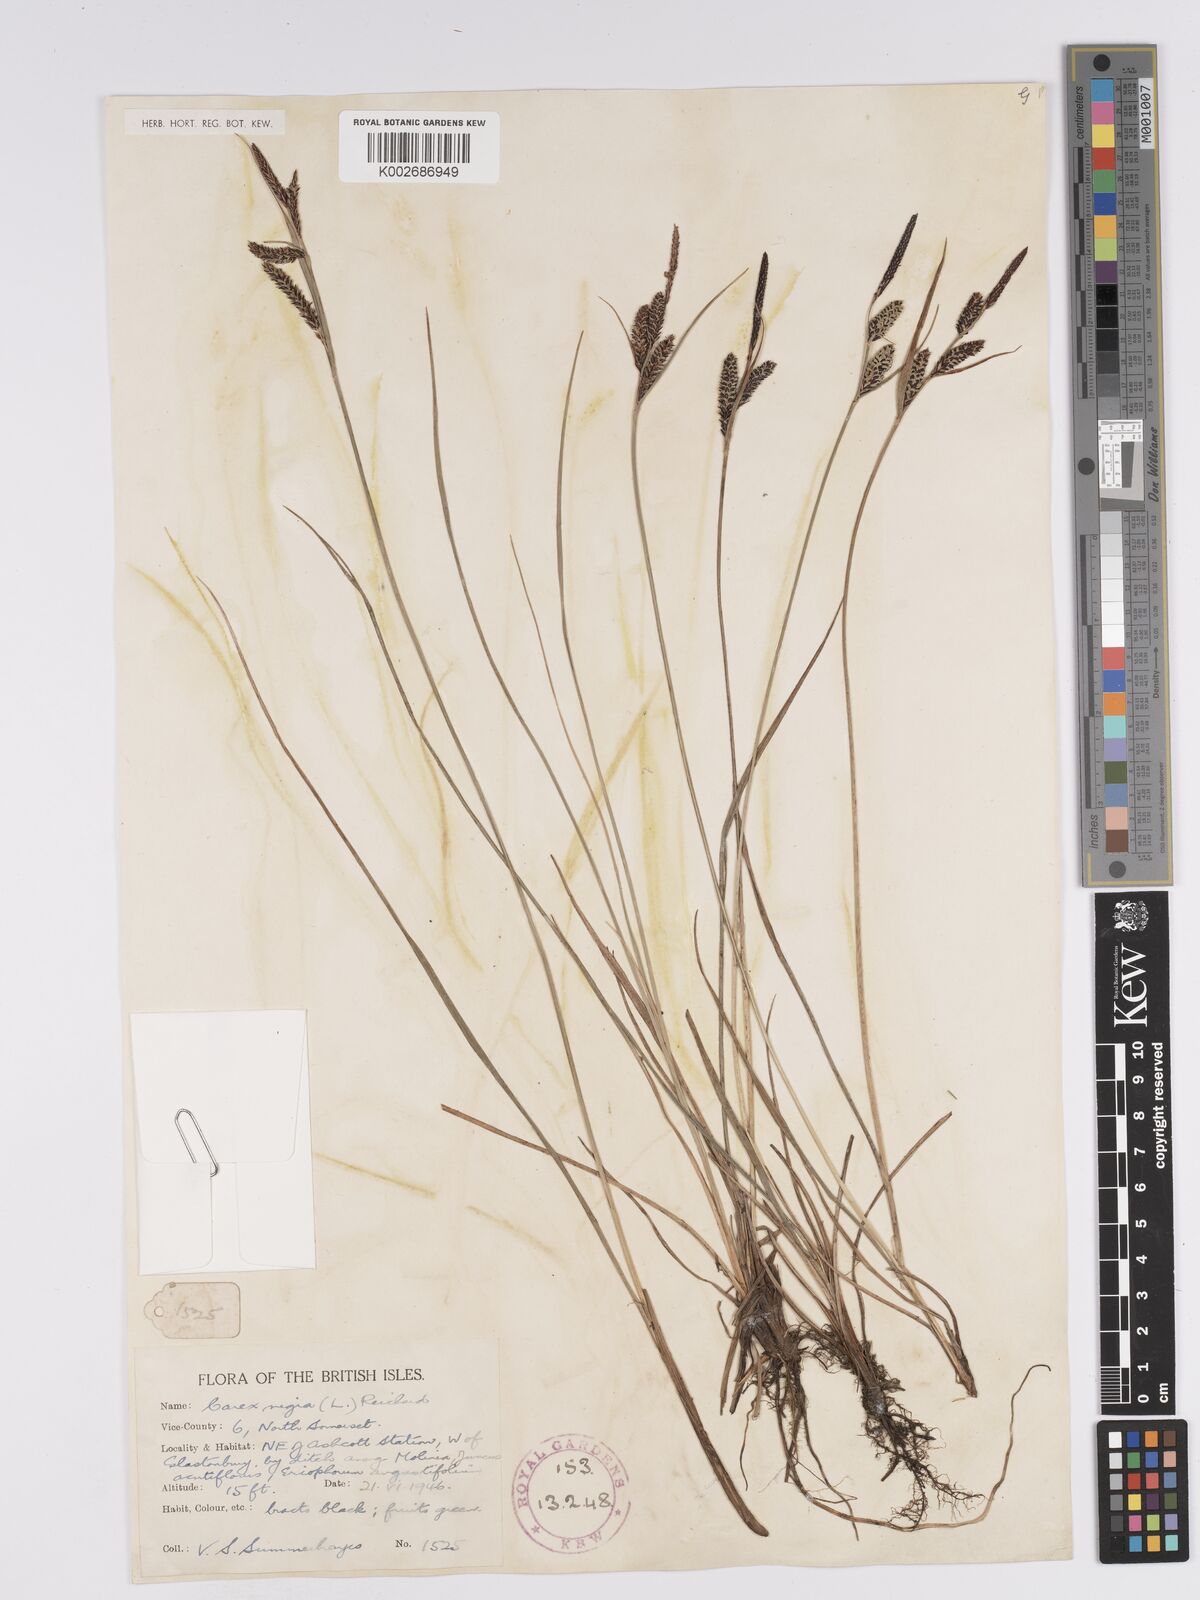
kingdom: Plantae
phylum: Tracheophyta
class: Liliopsida
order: Poales
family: Cyperaceae
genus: Carex
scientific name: Carex nigra
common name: Common sedge
